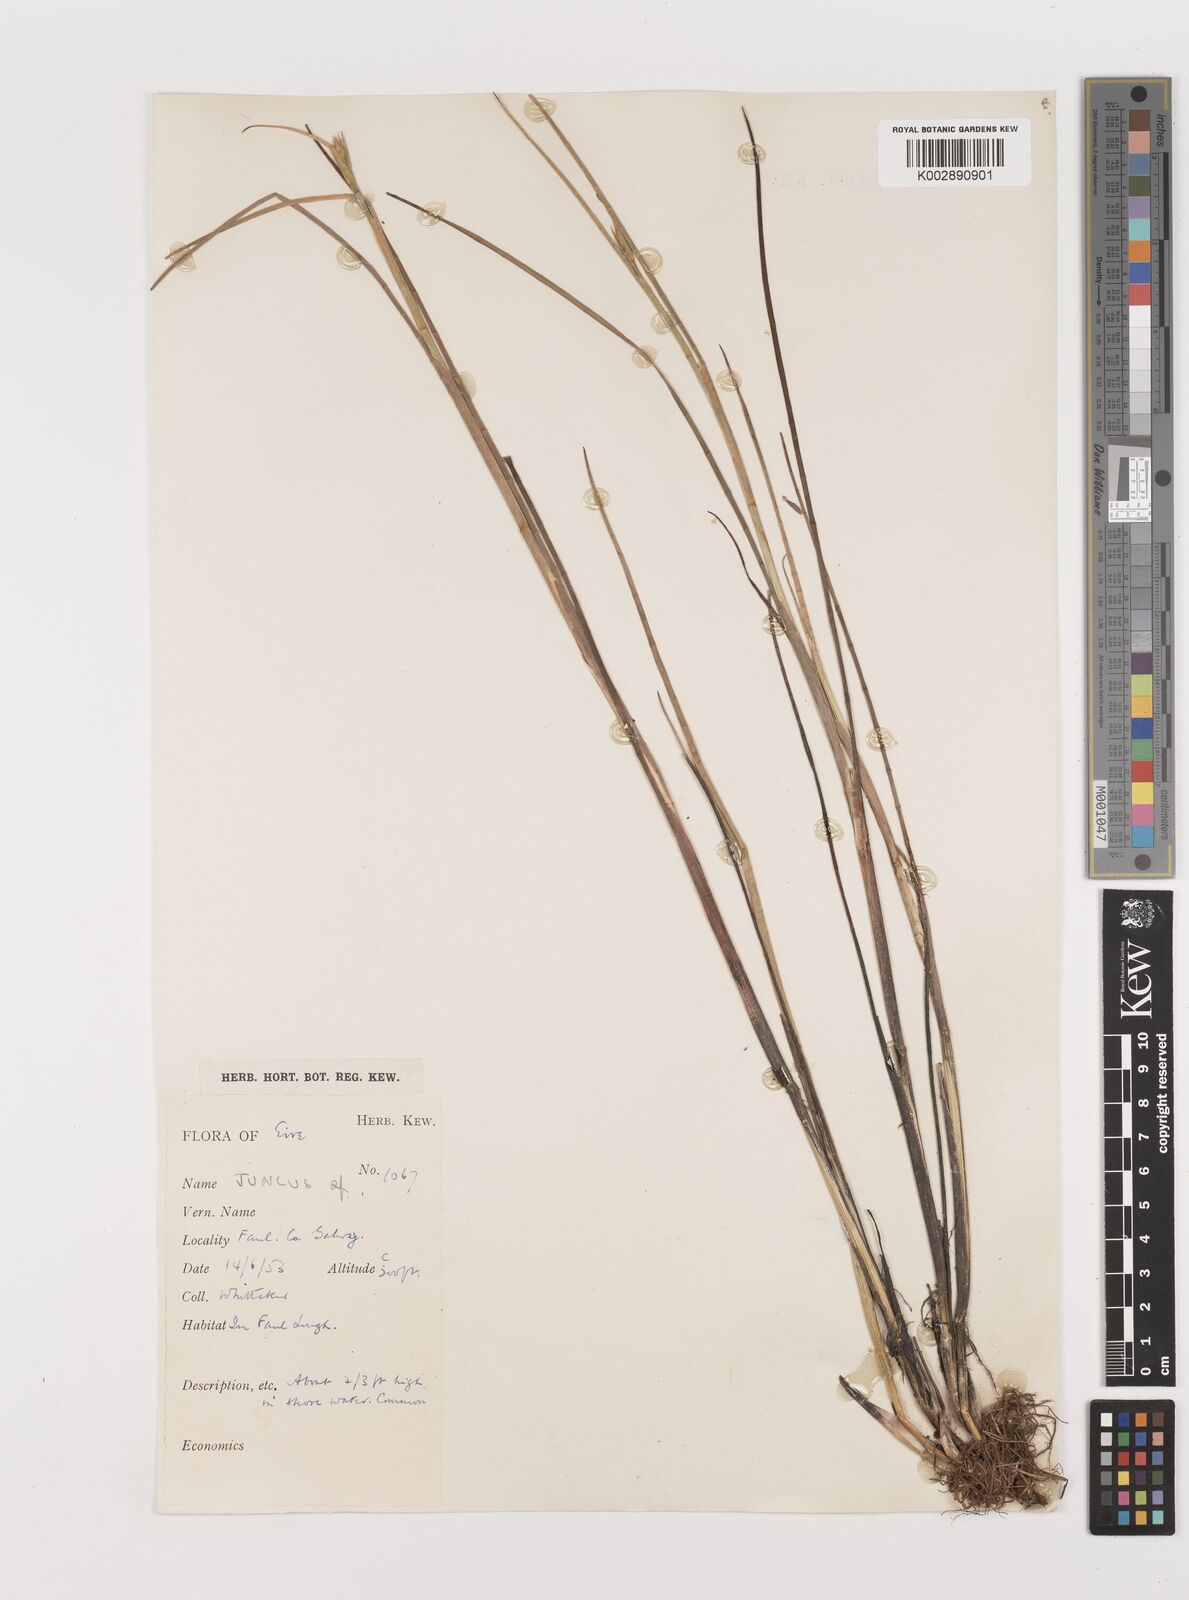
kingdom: Plantae
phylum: Tracheophyta
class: Liliopsida
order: Poales
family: Juncaceae
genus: Juncus
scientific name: Juncus
